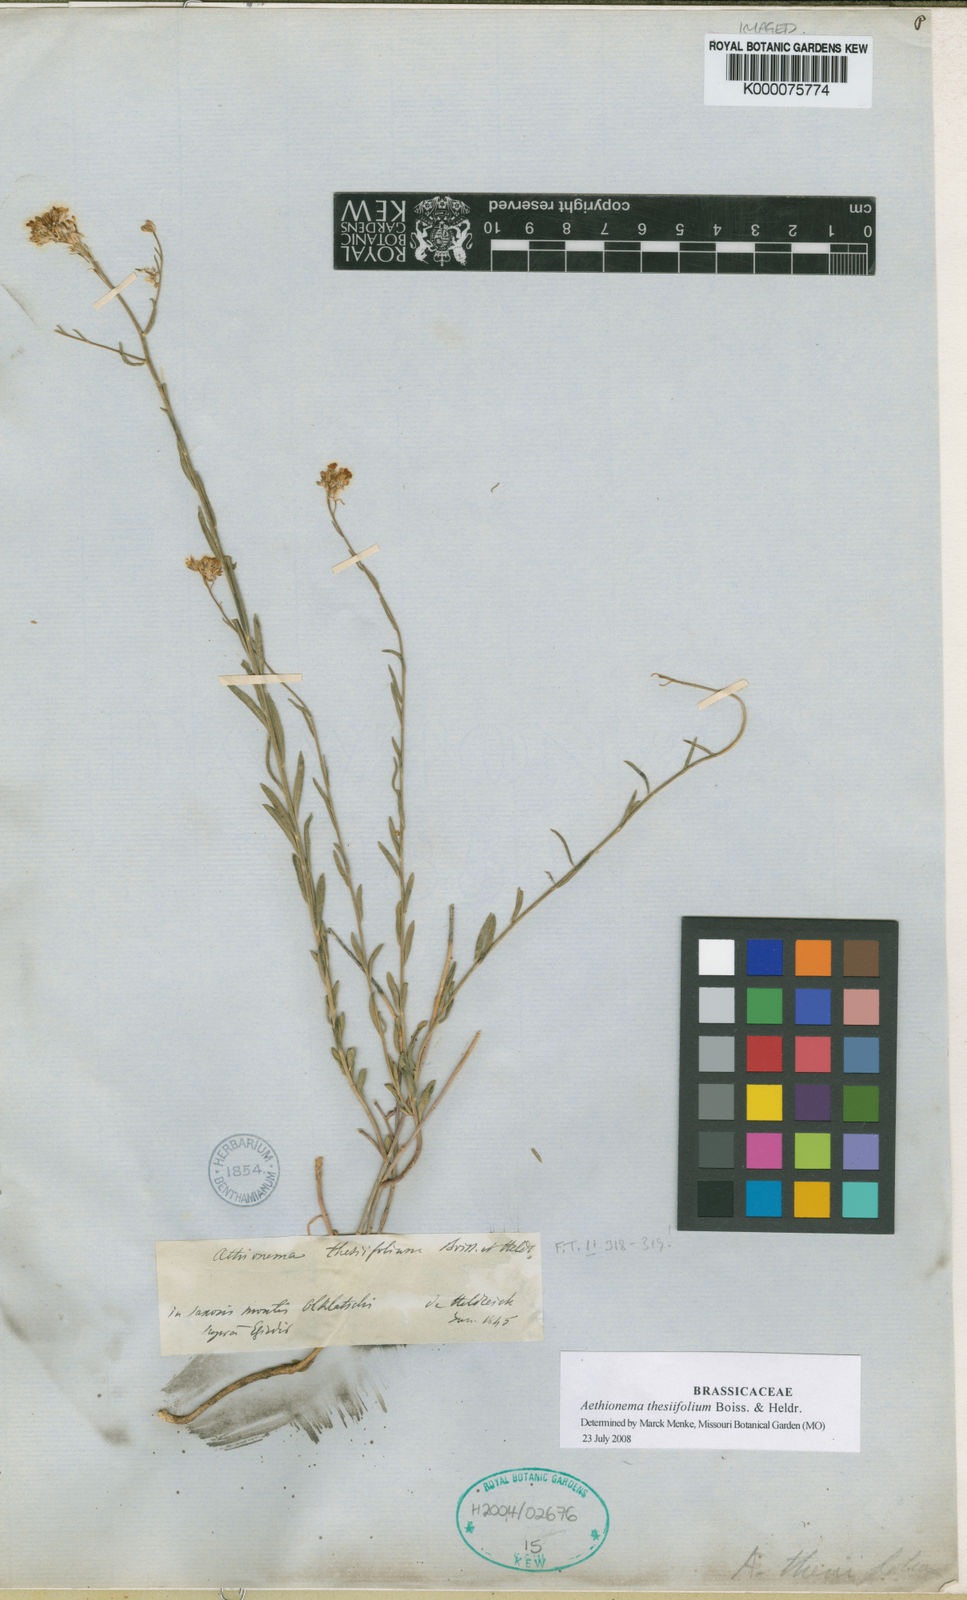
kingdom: Plantae
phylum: Tracheophyta
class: Magnoliopsida
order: Brassicales
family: Brassicaceae
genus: Aethionema
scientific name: Aethionema thesiifolium
